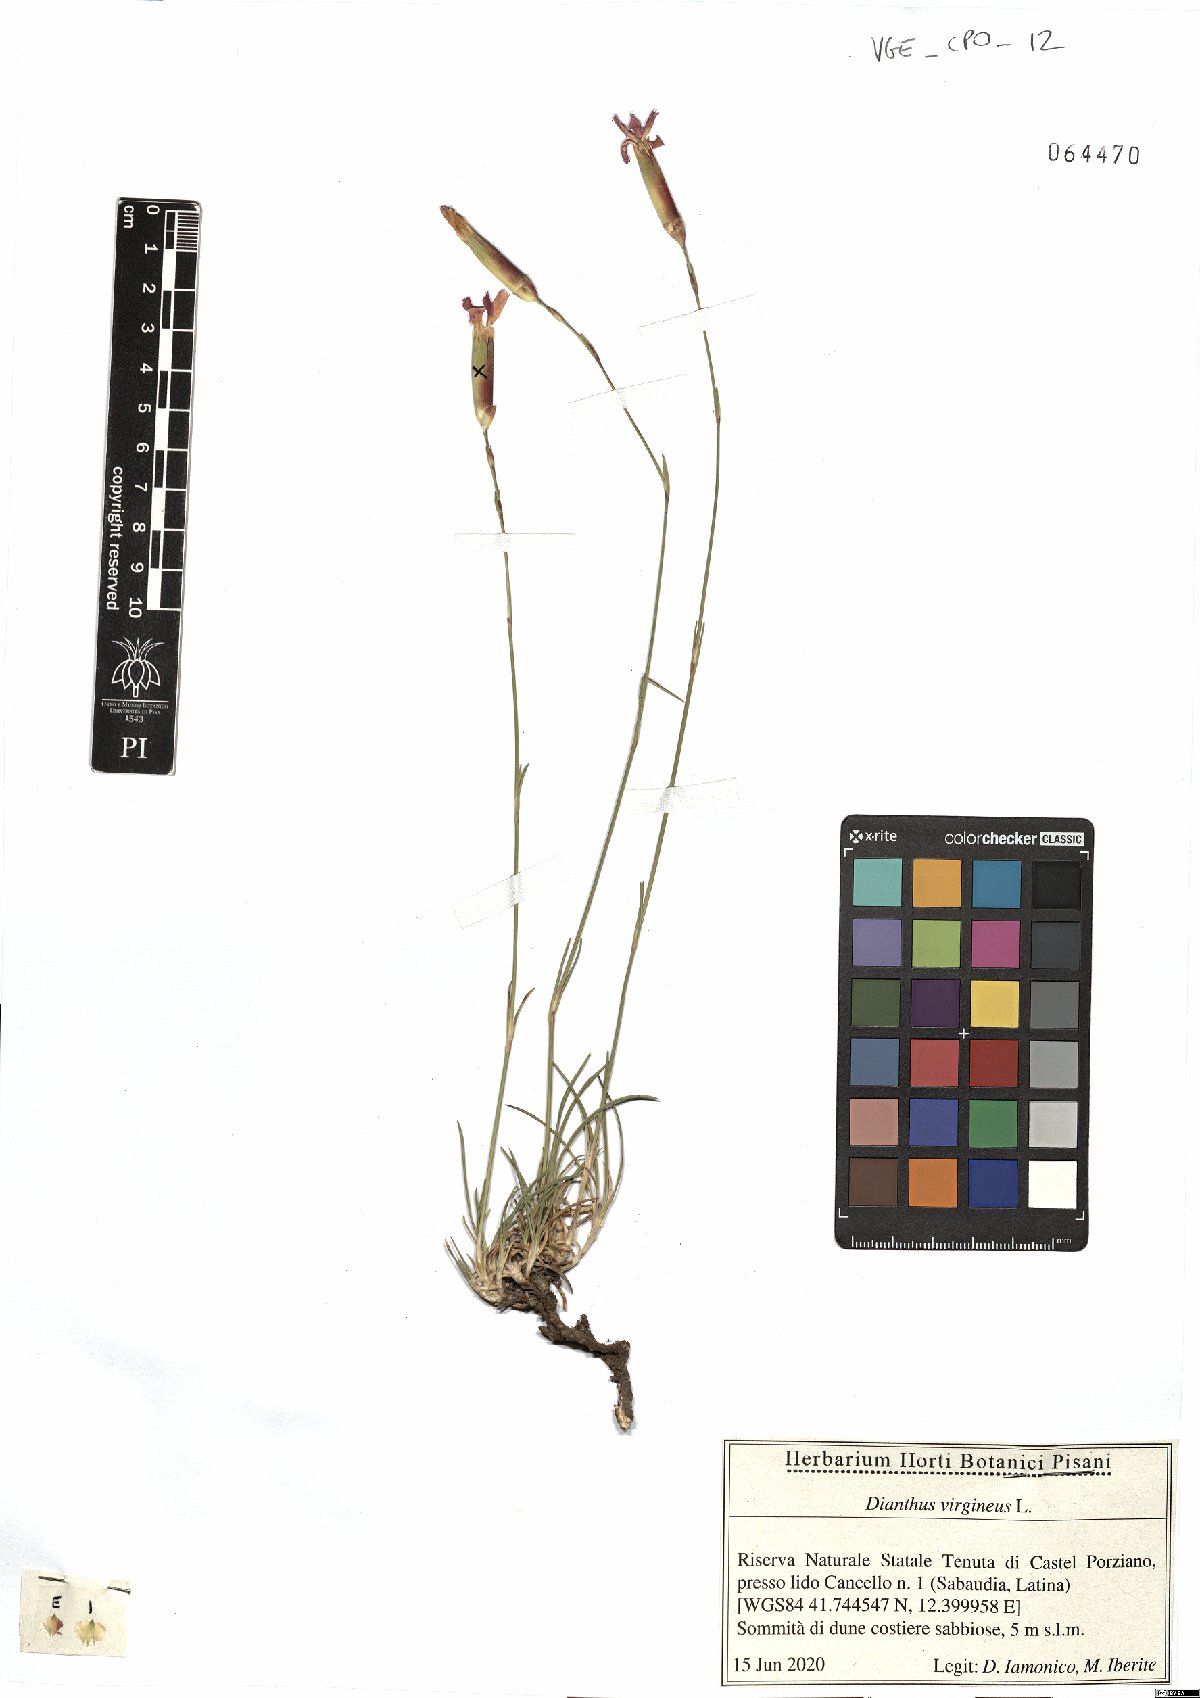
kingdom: Plantae
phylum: Tracheophyta
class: Magnoliopsida
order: Caryophyllales
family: Caryophyllaceae
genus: Dianthus
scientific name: Dianthus virgineus
